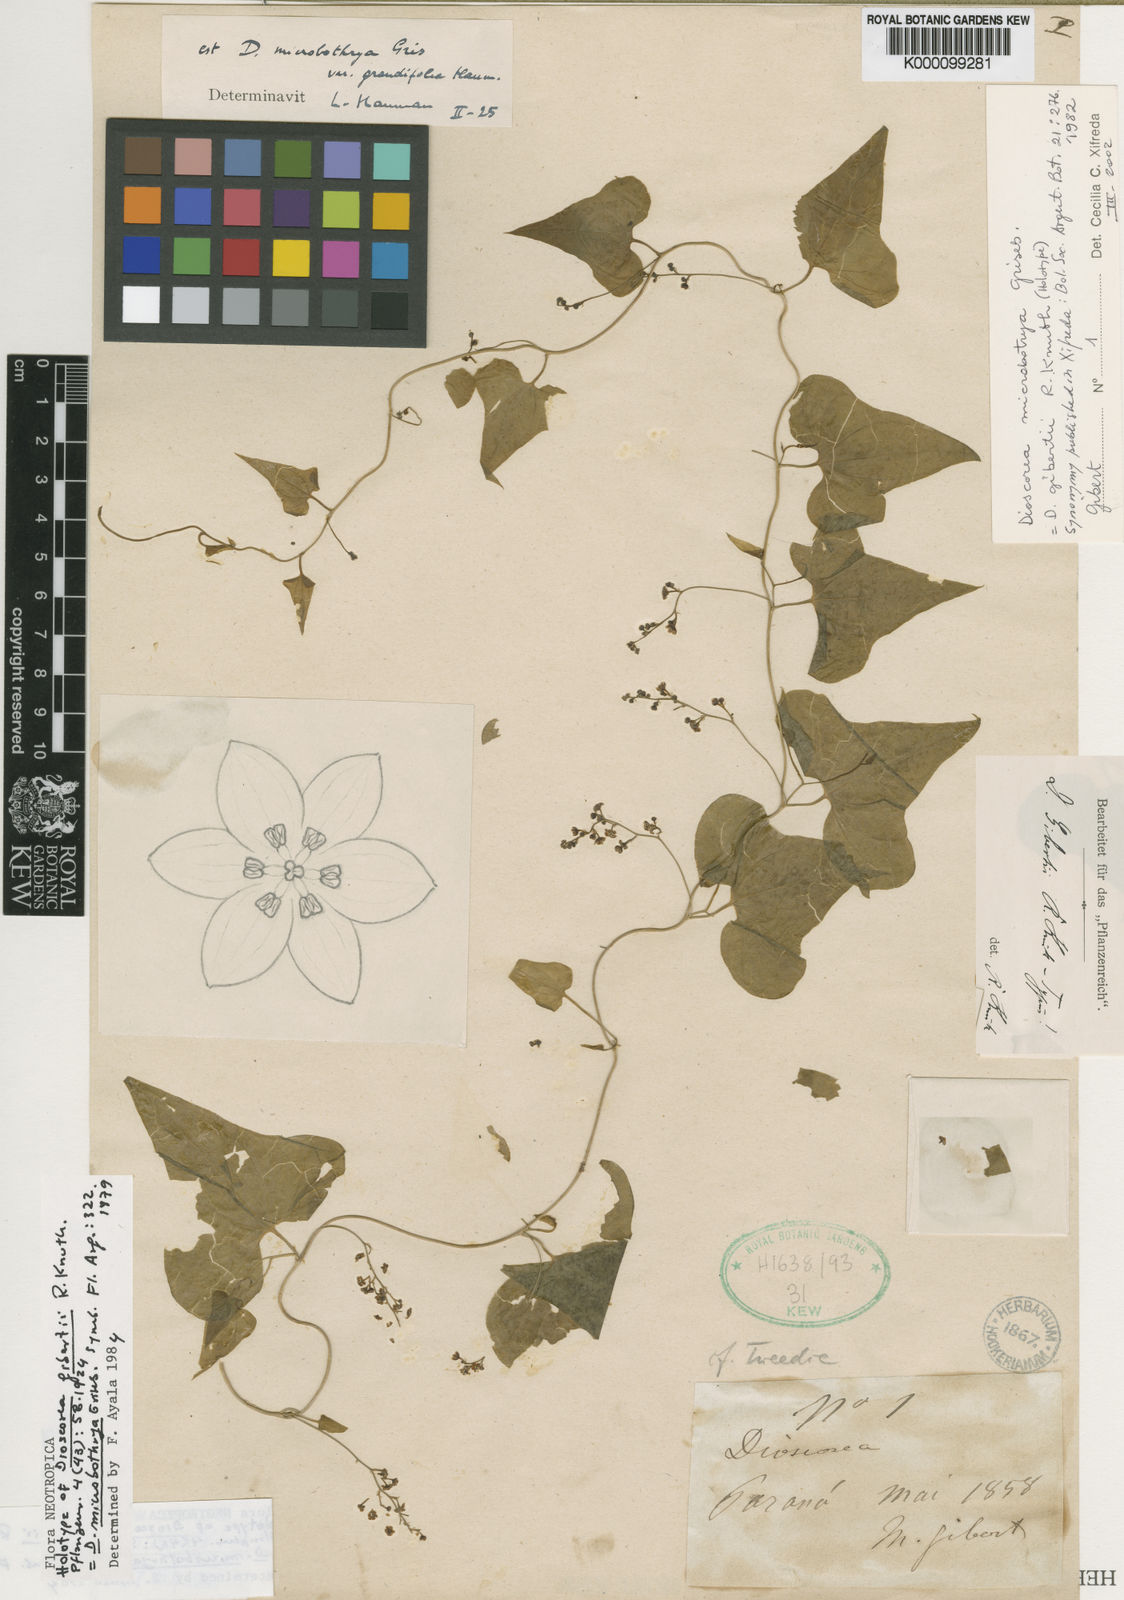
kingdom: Plantae
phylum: Tracheophyta
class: Liliopsida
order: Dioscoreales
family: Dioscoreaceae
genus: Dioscorea
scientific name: Dioscorea microbotrya
